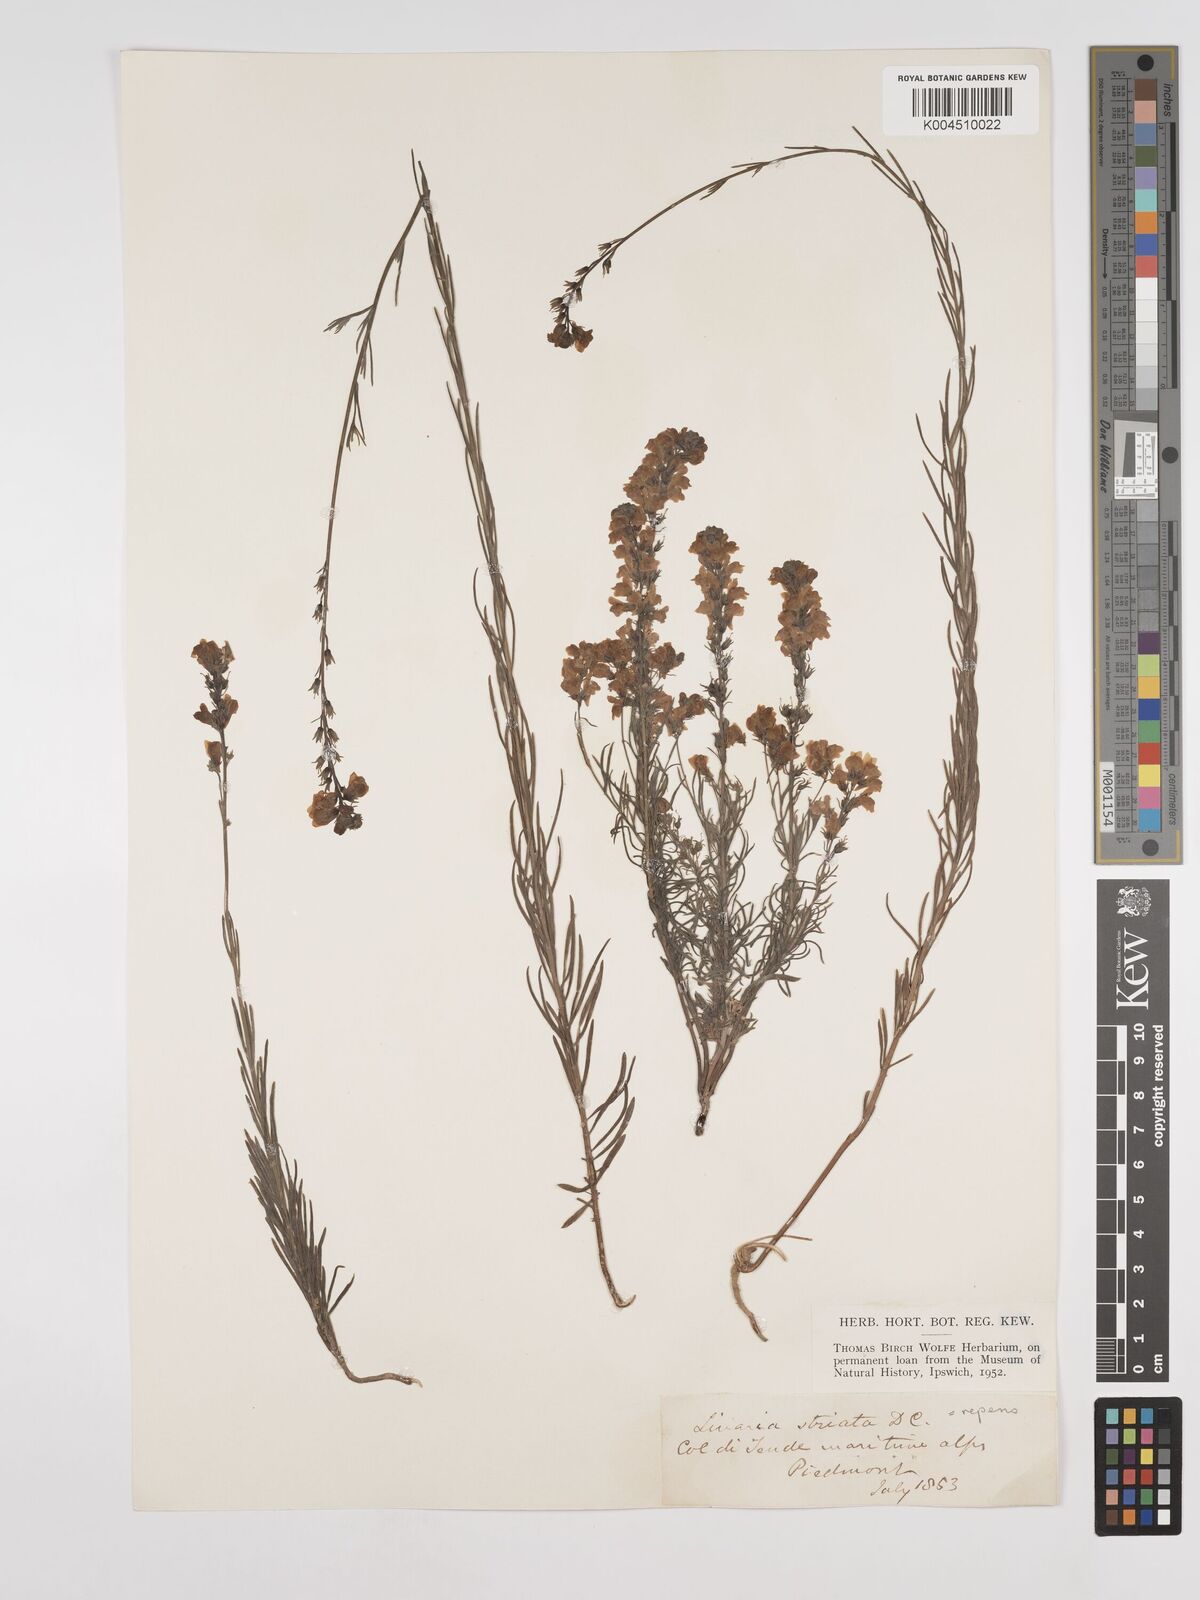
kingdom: Plantae
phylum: Tracheophyta
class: Magnoliopsida
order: Lamiales
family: Plantaginaceae
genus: Linaria
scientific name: Linaria repens
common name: Pale toadflax
